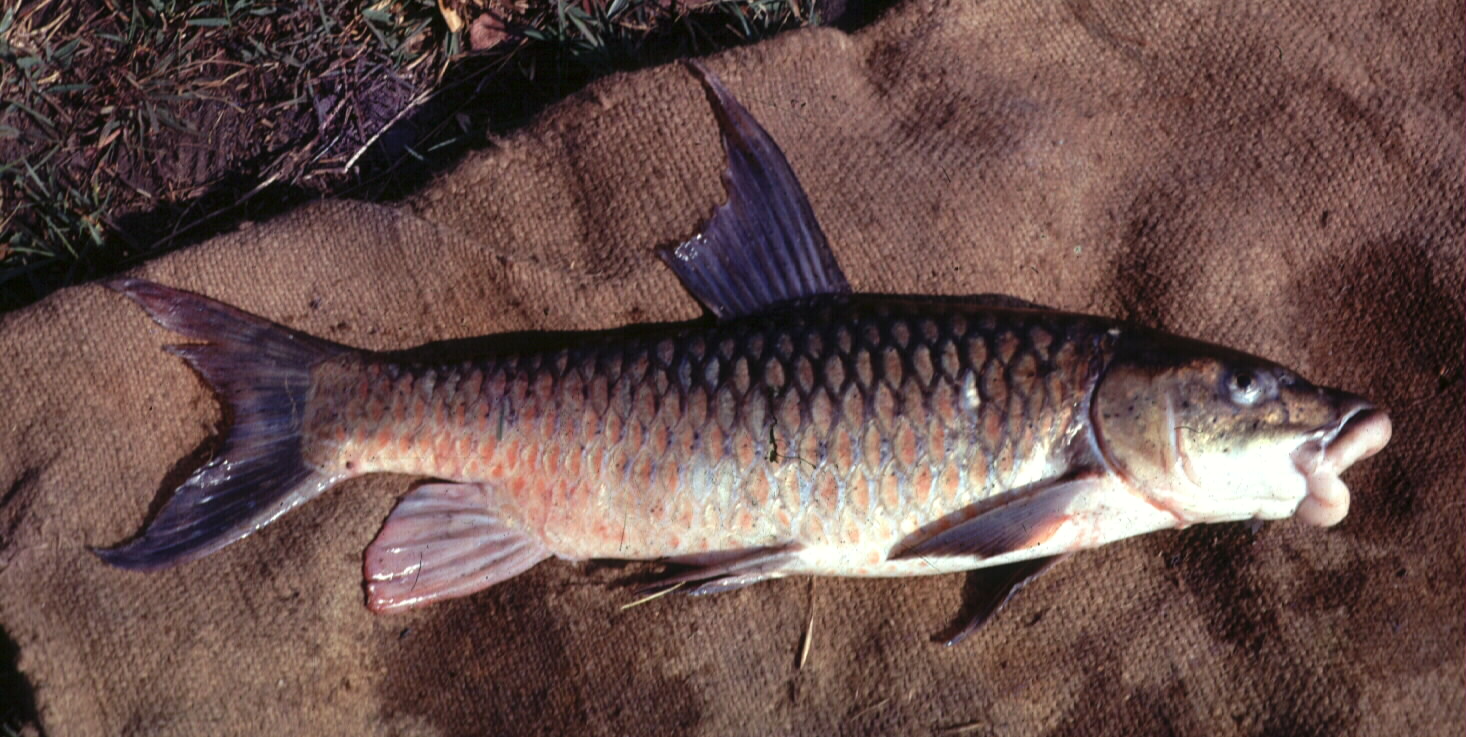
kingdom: Animalia
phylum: Chordata
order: Cypriniformes
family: Cyprinidae
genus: Labeobarbus
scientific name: Labeobarbus codringtonii
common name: Upper zambezi yellowfish
